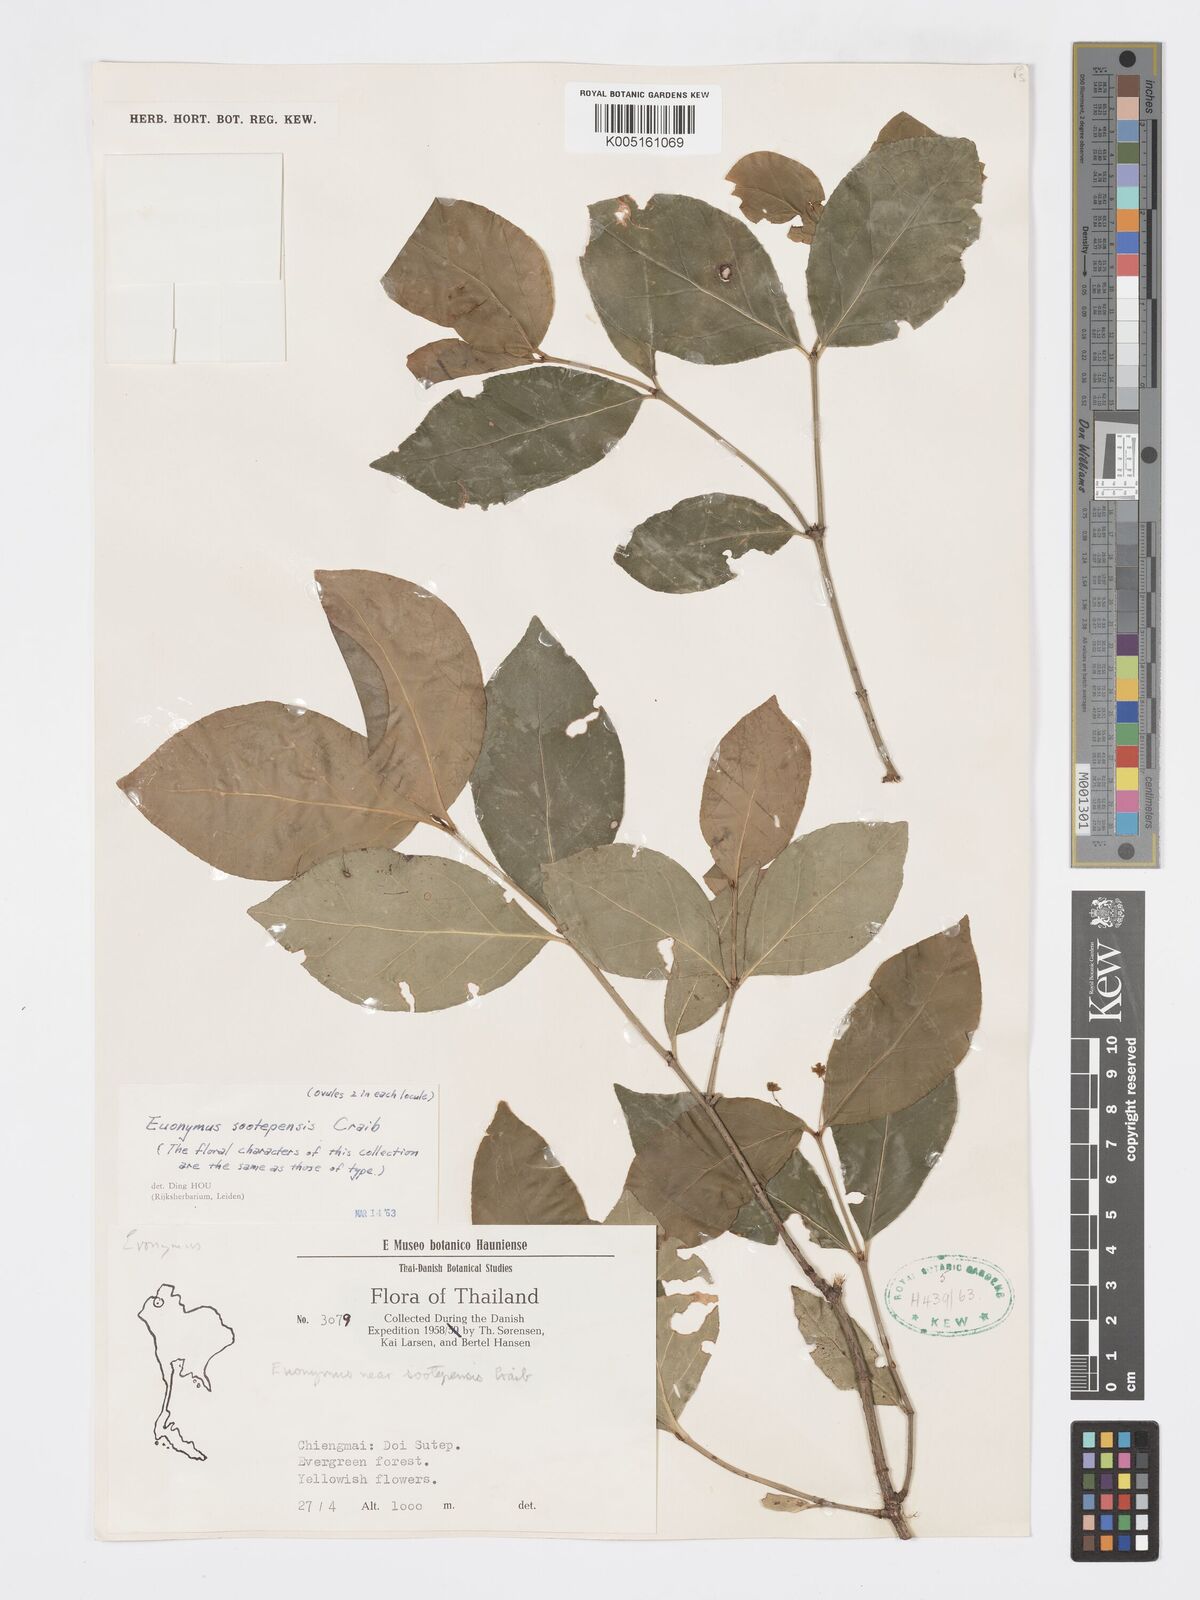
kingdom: Plantae
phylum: Tracheophyta
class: Magnoliopsida
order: Celastrales
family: Celastraceae
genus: Euonymus
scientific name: Euonymus sootepensis
